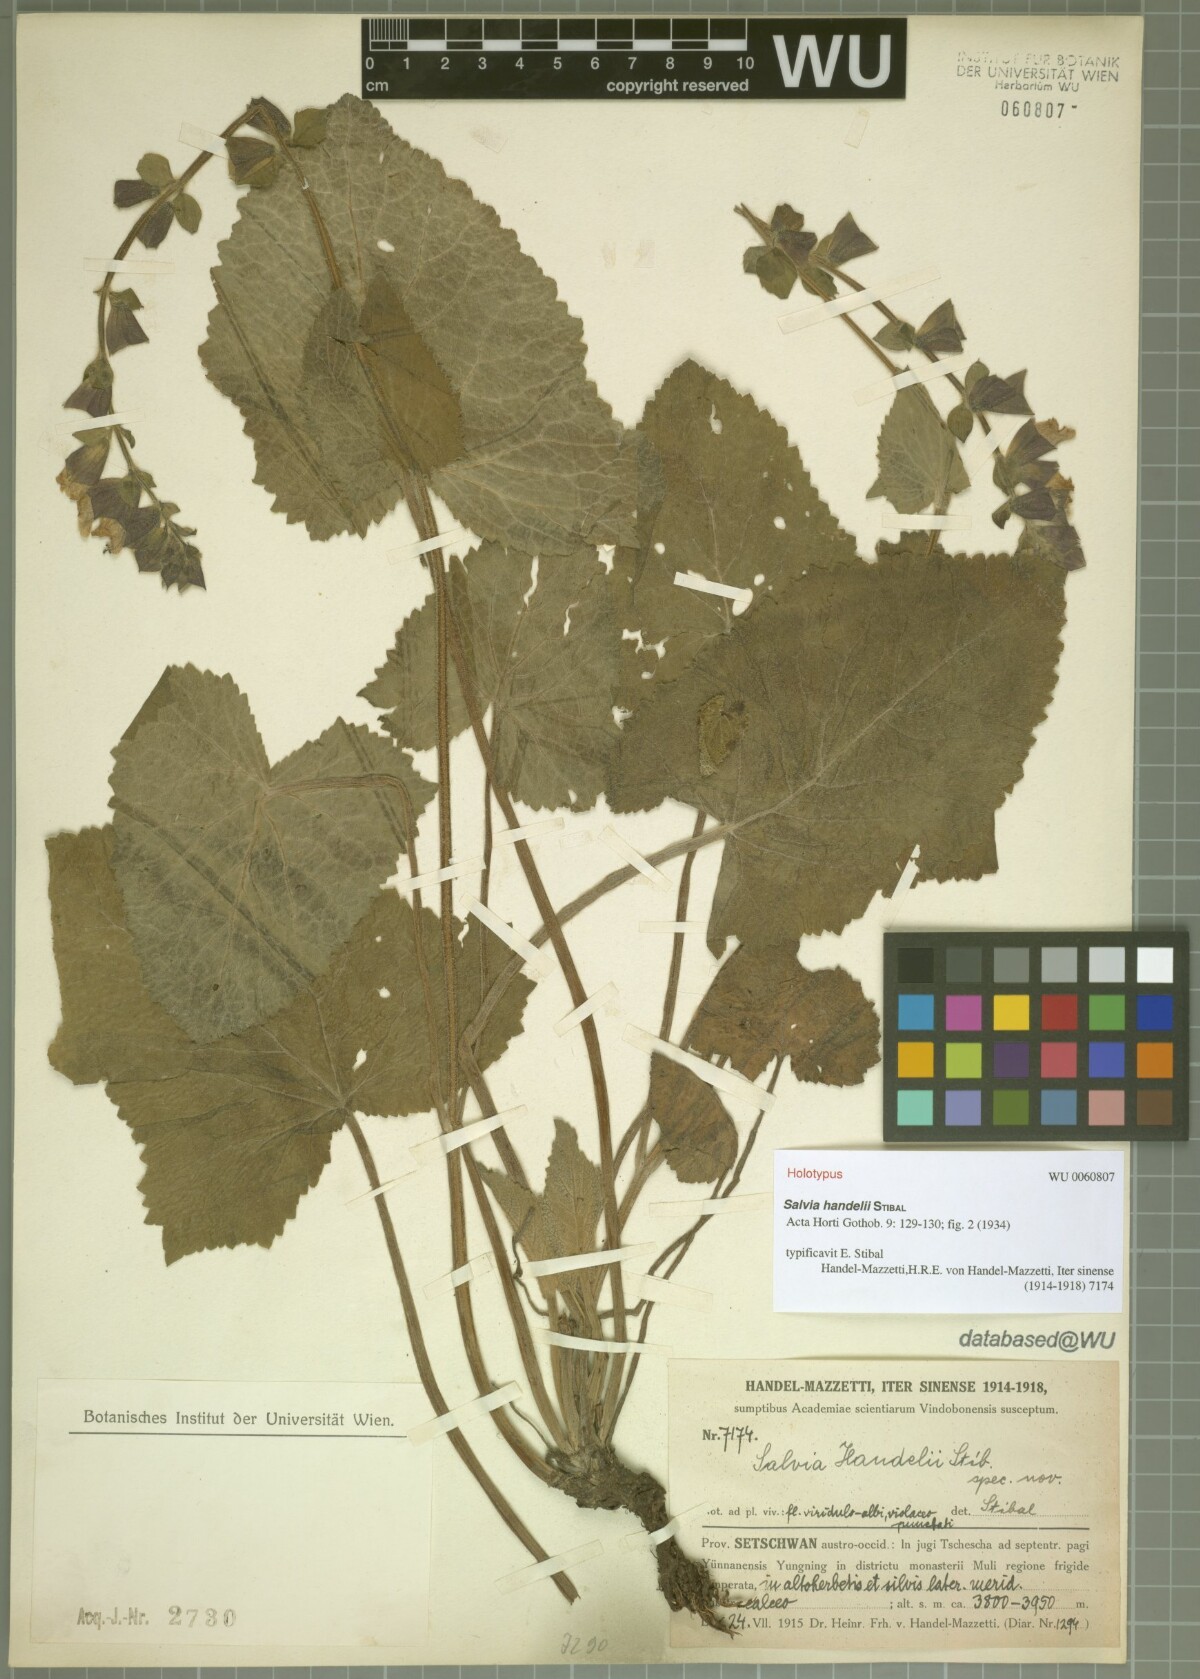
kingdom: Plantae
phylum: Tracheophyta
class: Magnoliopsida
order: Lamiales
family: Lamiaceae
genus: Salvia
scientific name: Salvia handelii
